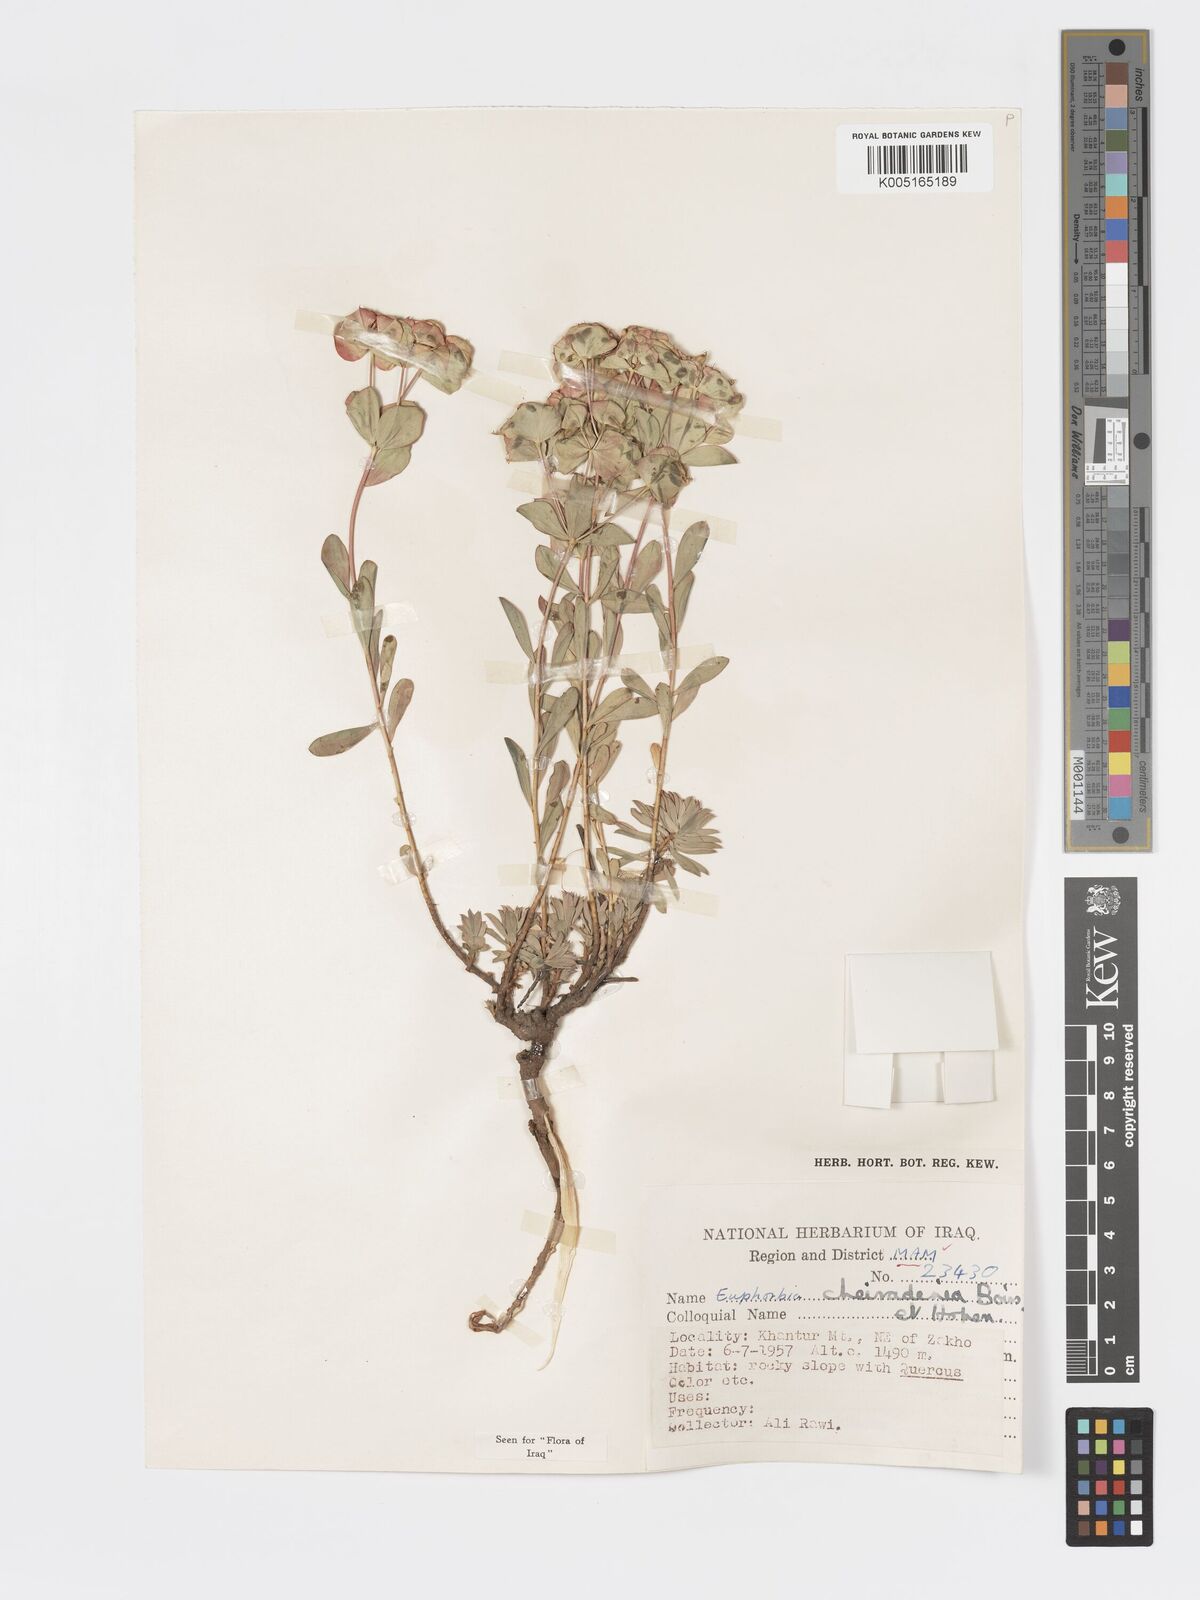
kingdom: Plantae
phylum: Tracheophyta
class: Magnoliopsida
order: Malpighiales
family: Euphorbiaceae
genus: Euphorbia
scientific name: Euphorbia cheiradenia
